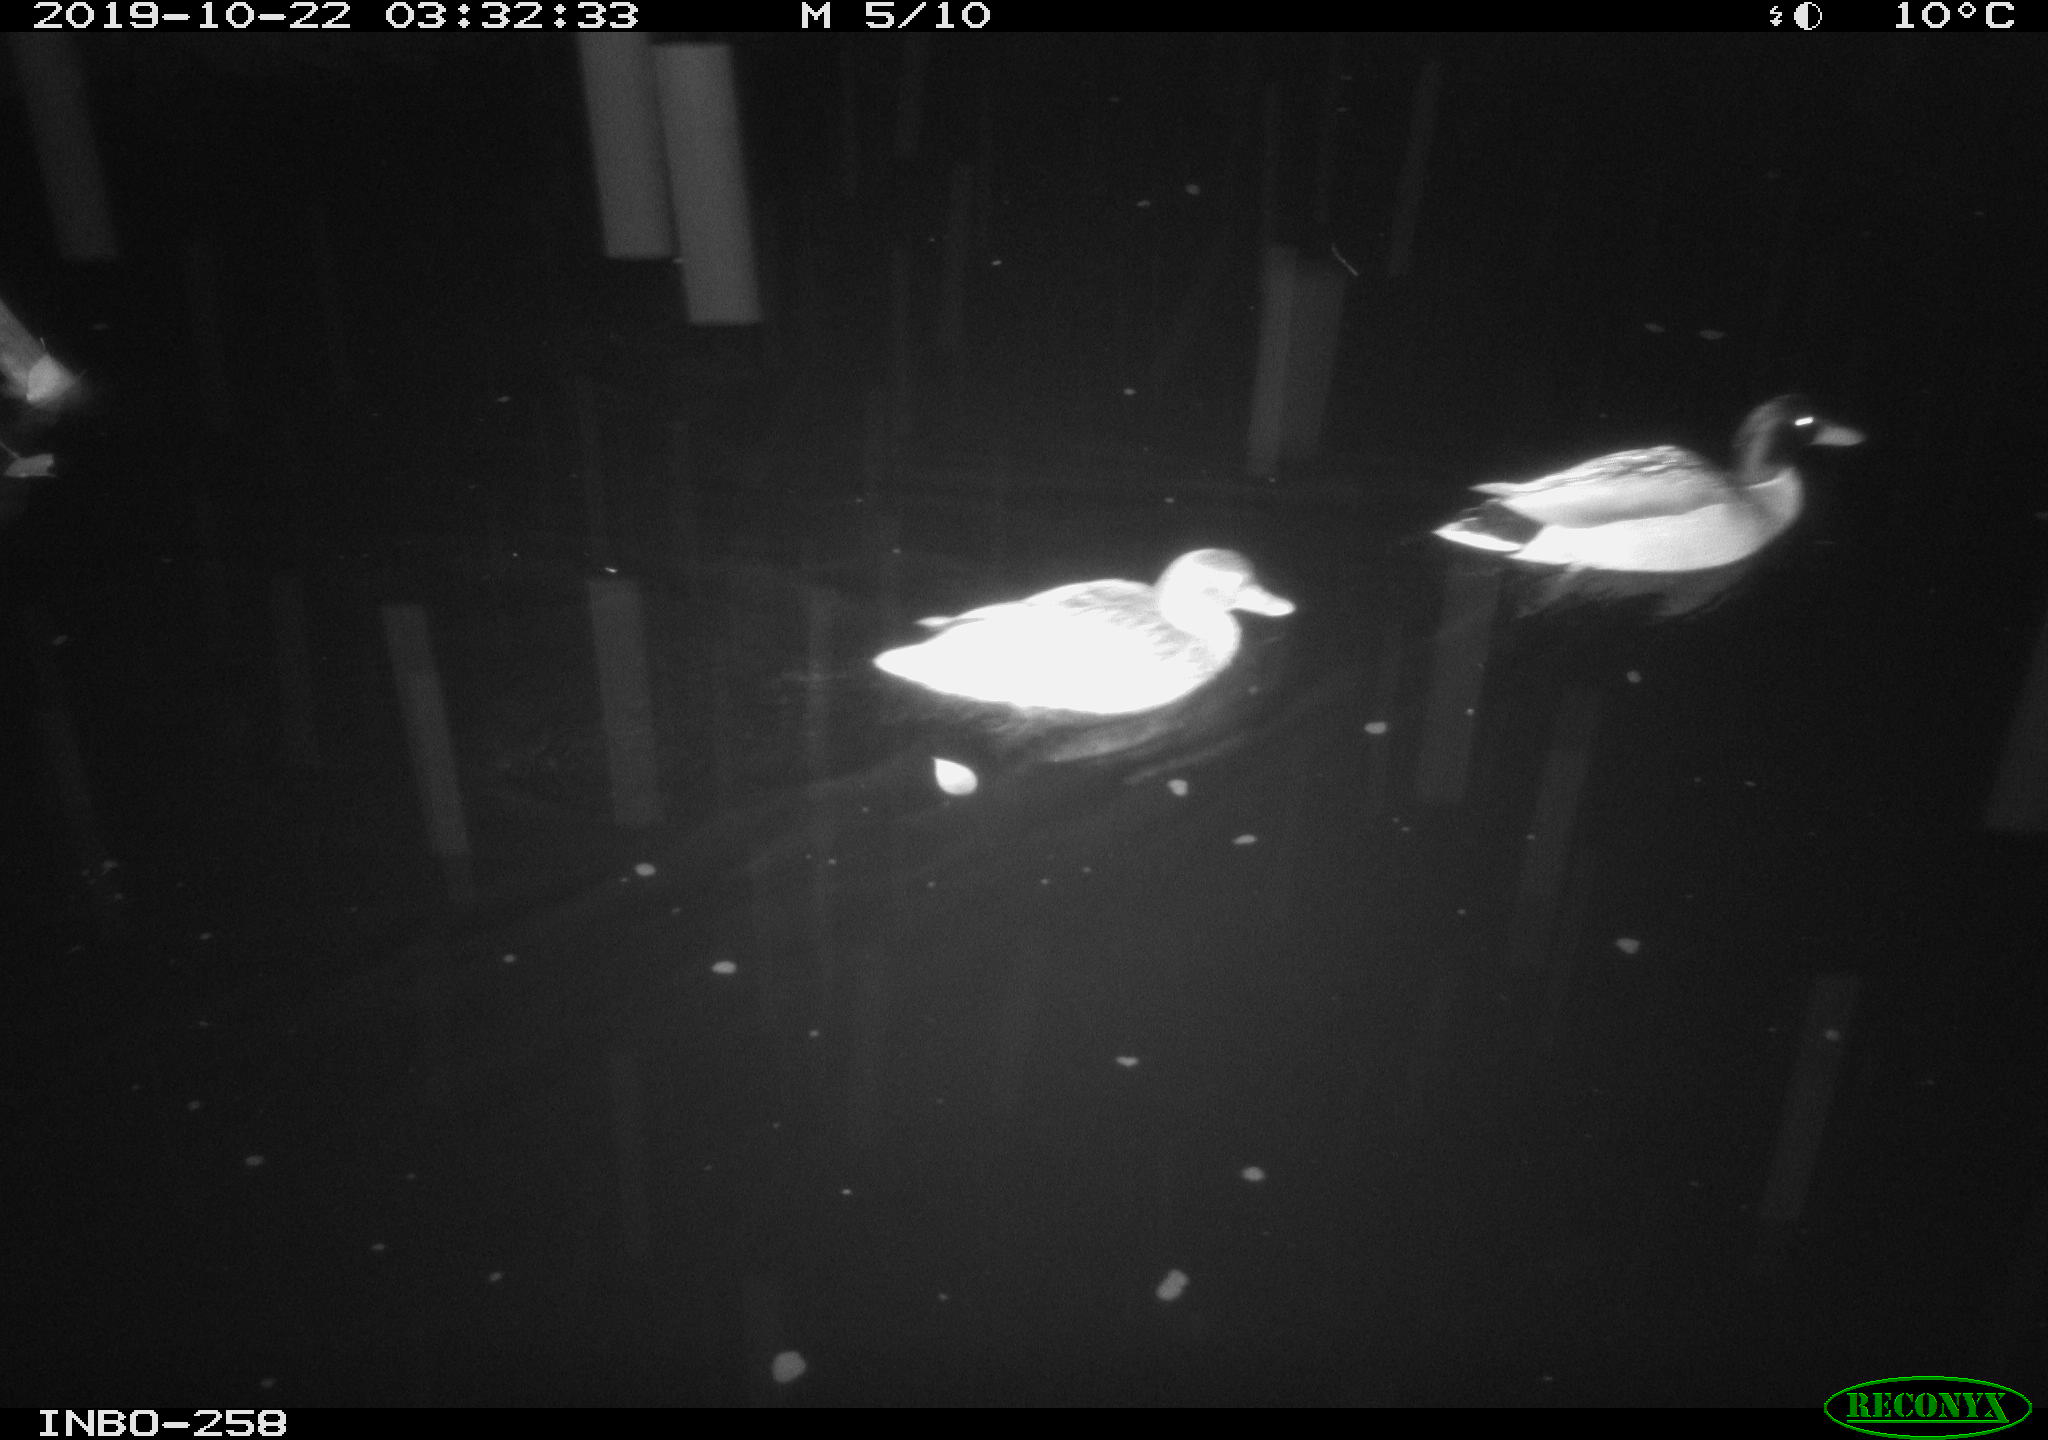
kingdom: Animalia
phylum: Chordata
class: Aves
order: Anseriformes
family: Anatidae
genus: Anas
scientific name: Anas platyrhynchos
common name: Mallard
